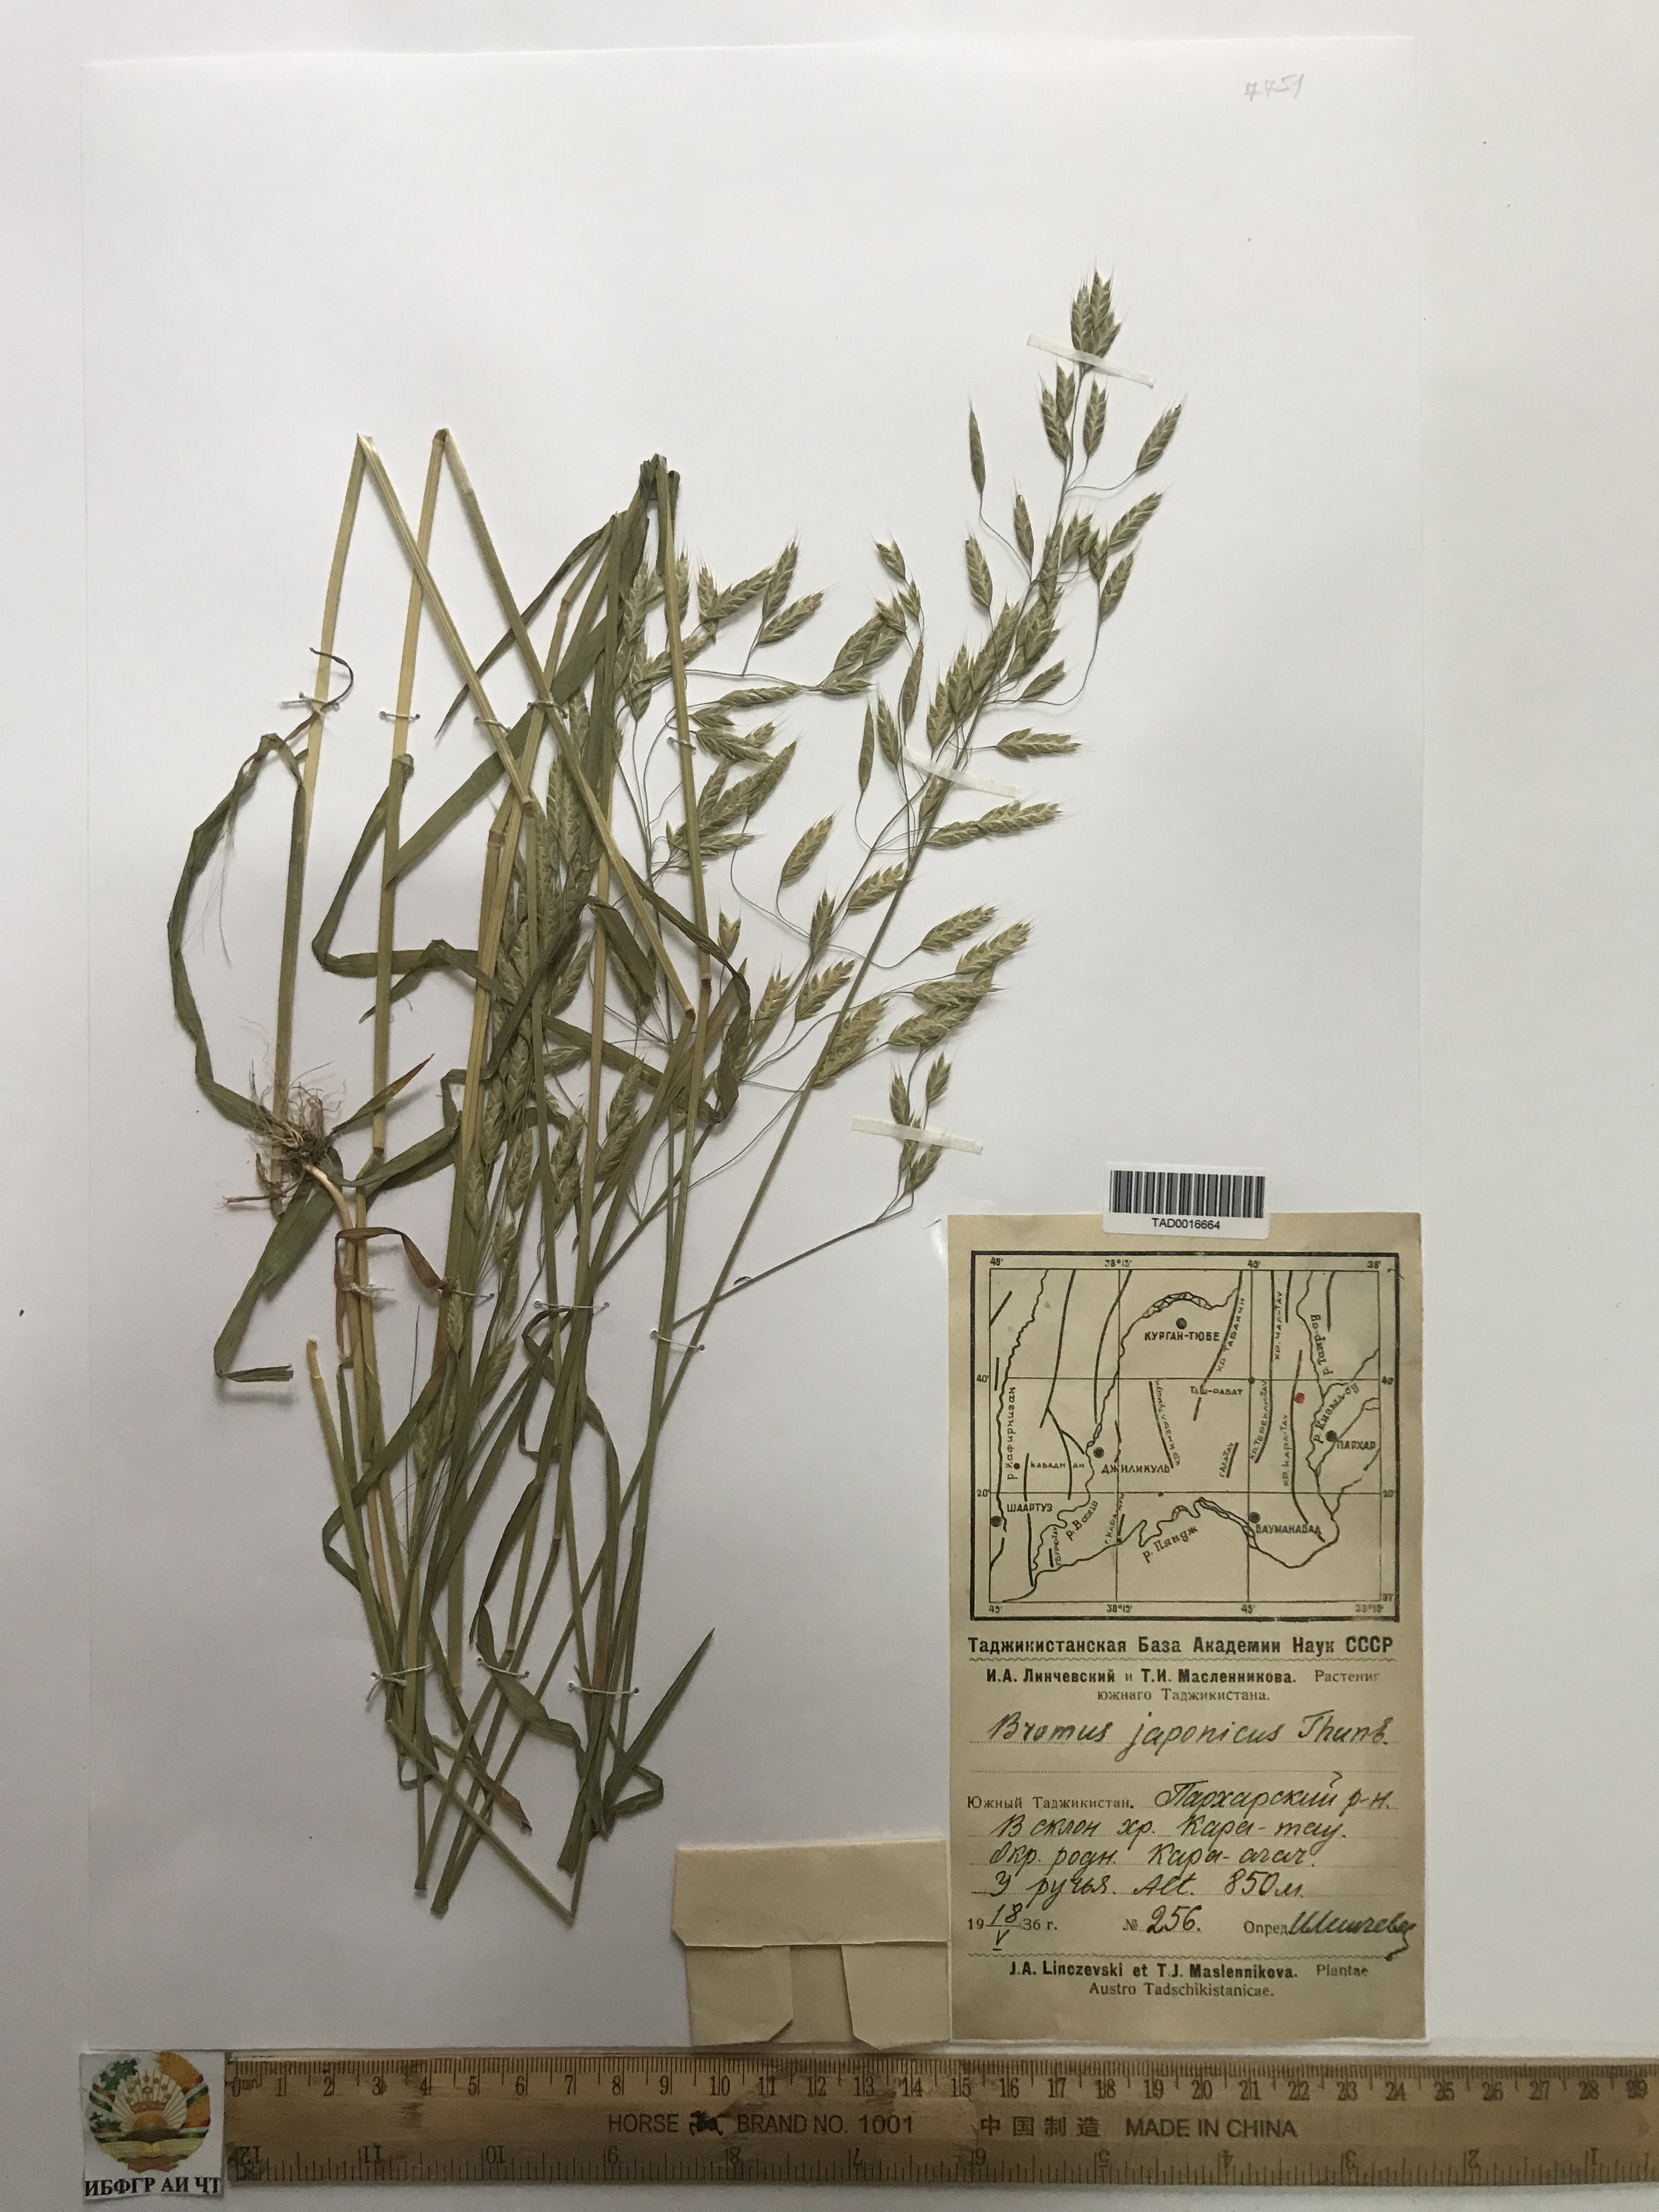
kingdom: Plantae
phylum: Tracheophyta
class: Liliopsida
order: Poales
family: Poaceae
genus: Bromus
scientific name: Bromus japonicus
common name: Japanese brome
